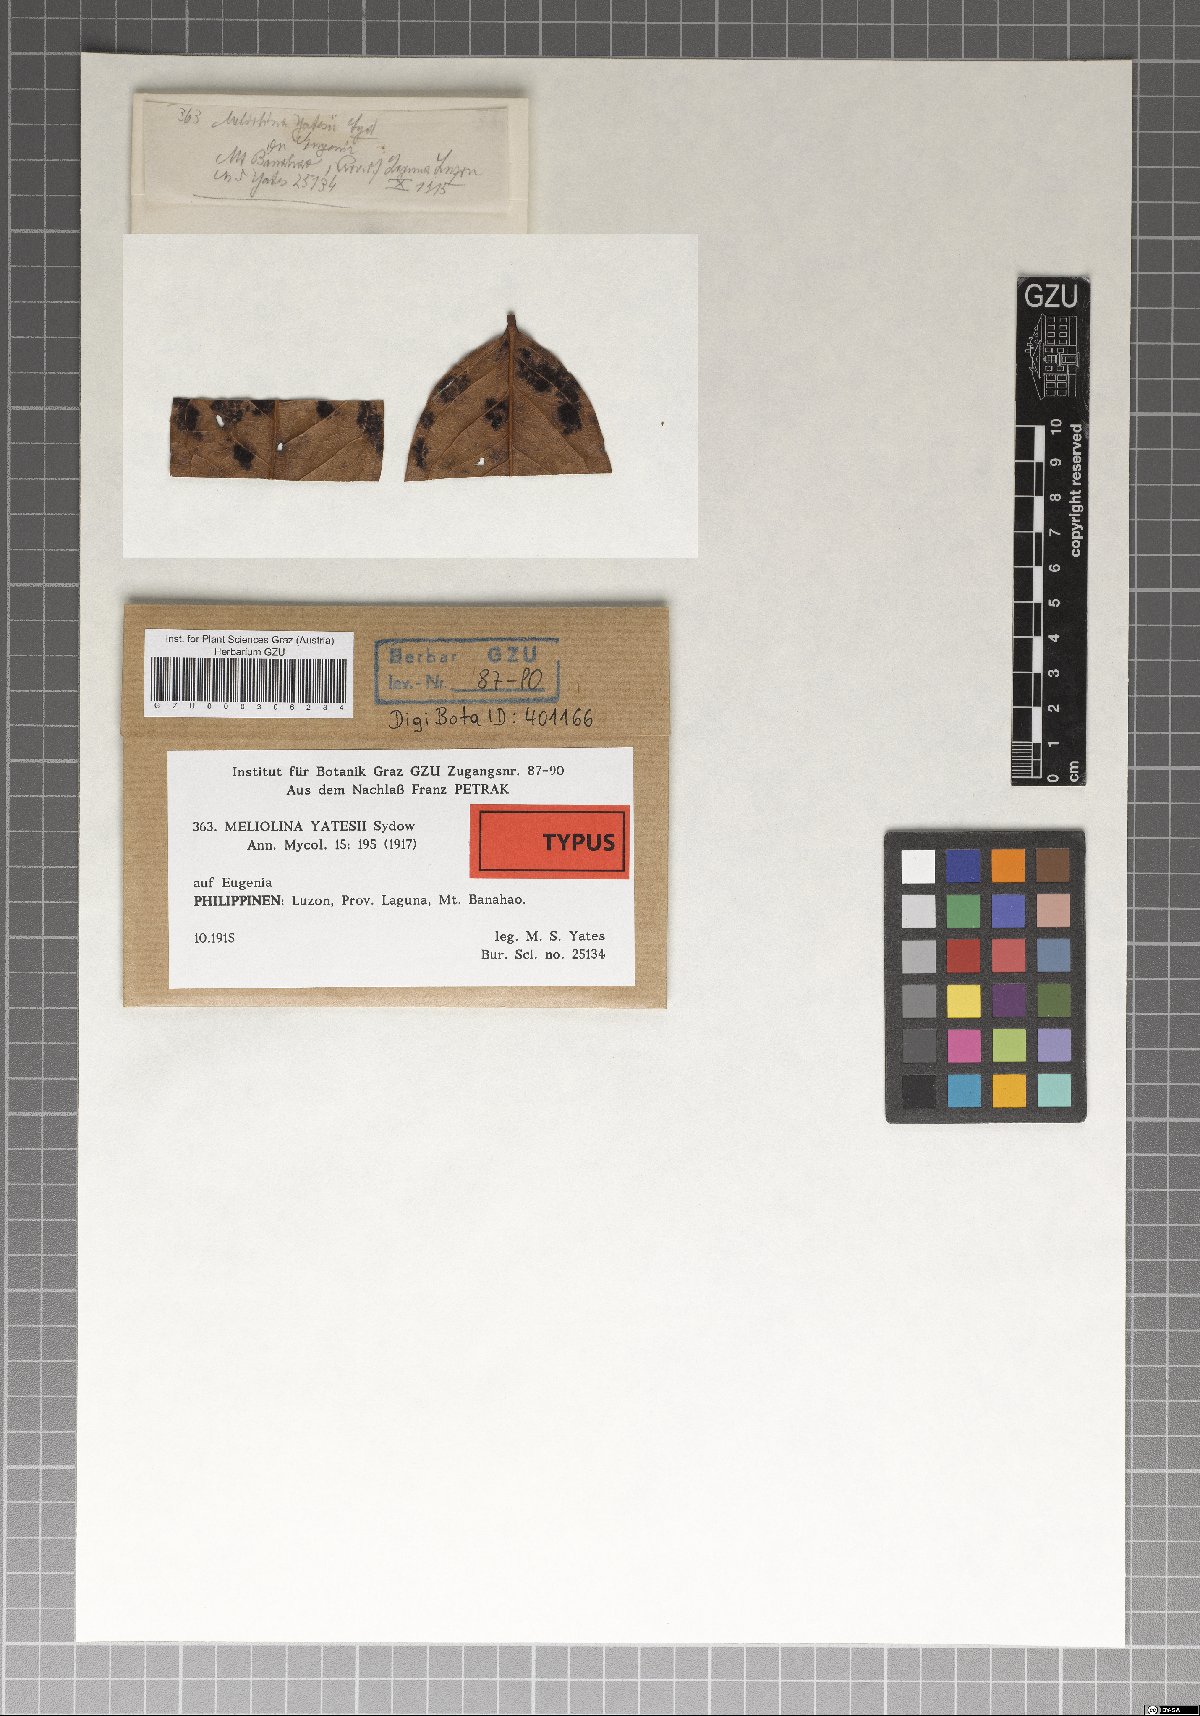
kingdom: Fungi
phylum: Ascomycota
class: Dothideomycetes
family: Meliolinaceae
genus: Meliolina
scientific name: Meliolina yatesii
